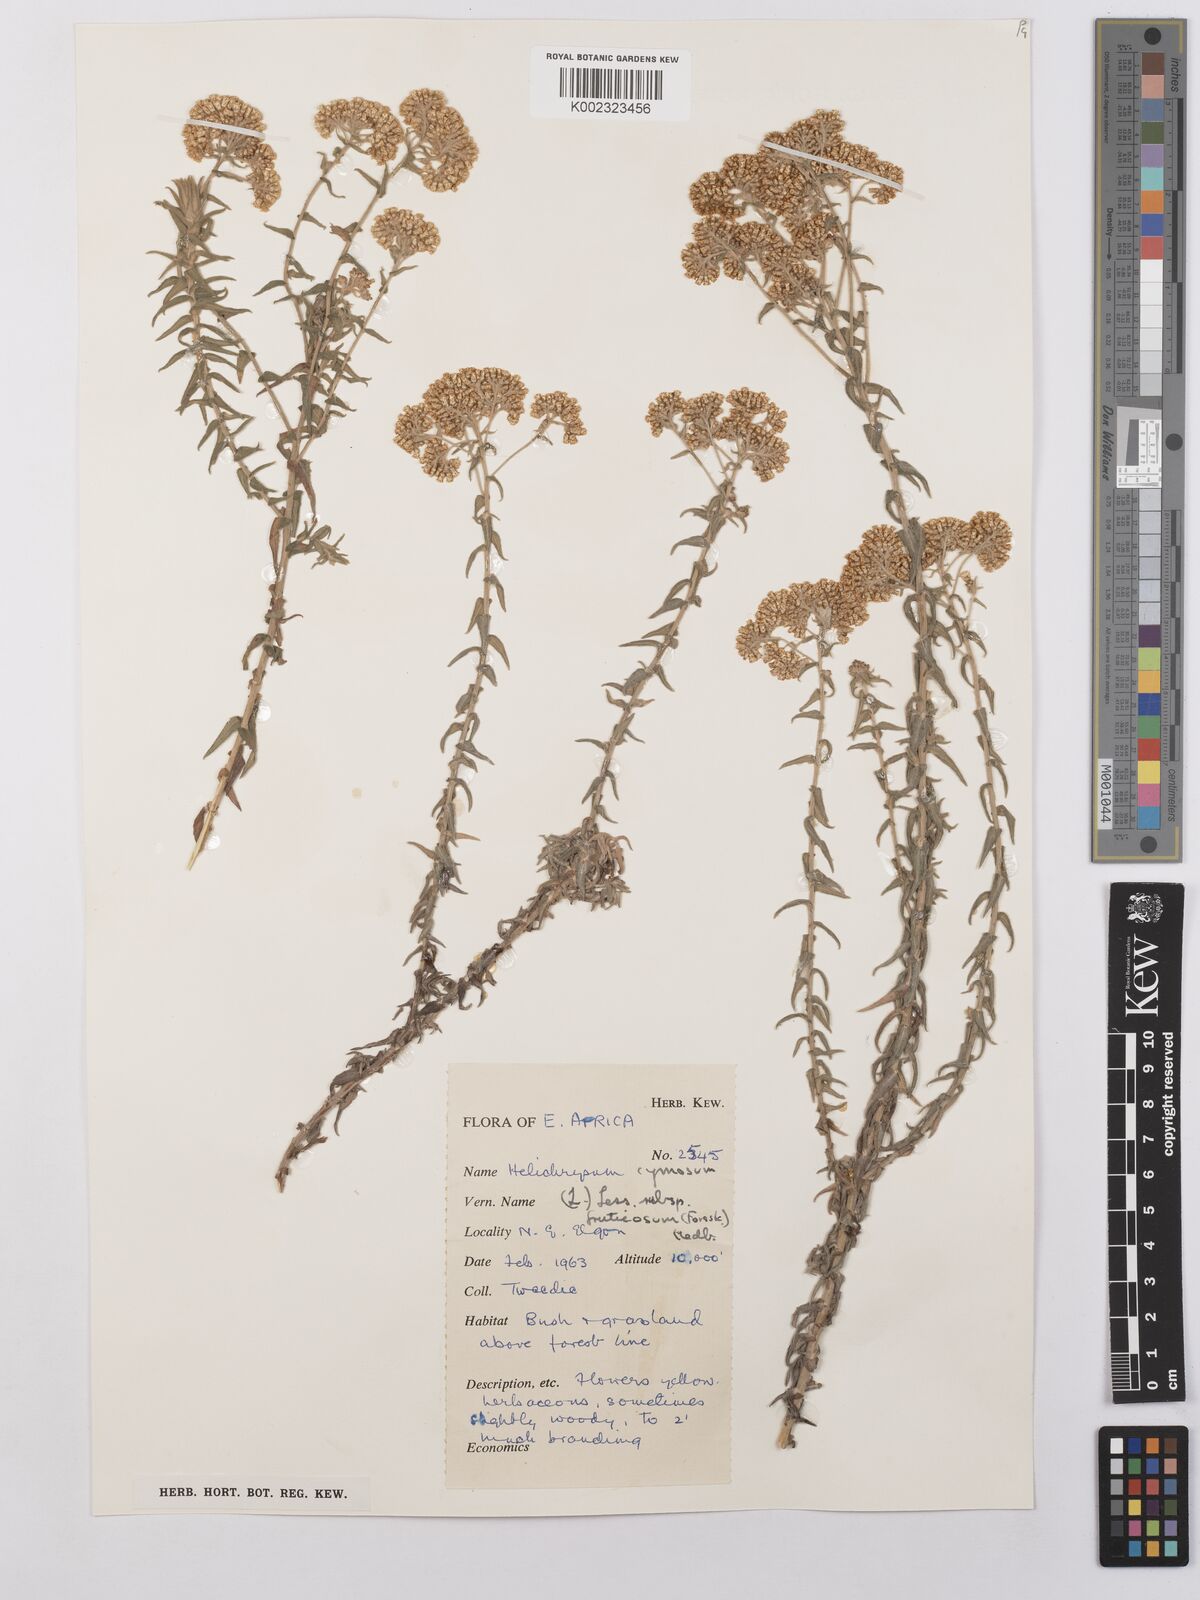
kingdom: Plantae
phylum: Tracheophyta
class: Magnoliopsida
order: Asterales
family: Asteraceae
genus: Helichrysum
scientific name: Helichrysum forskahlii
